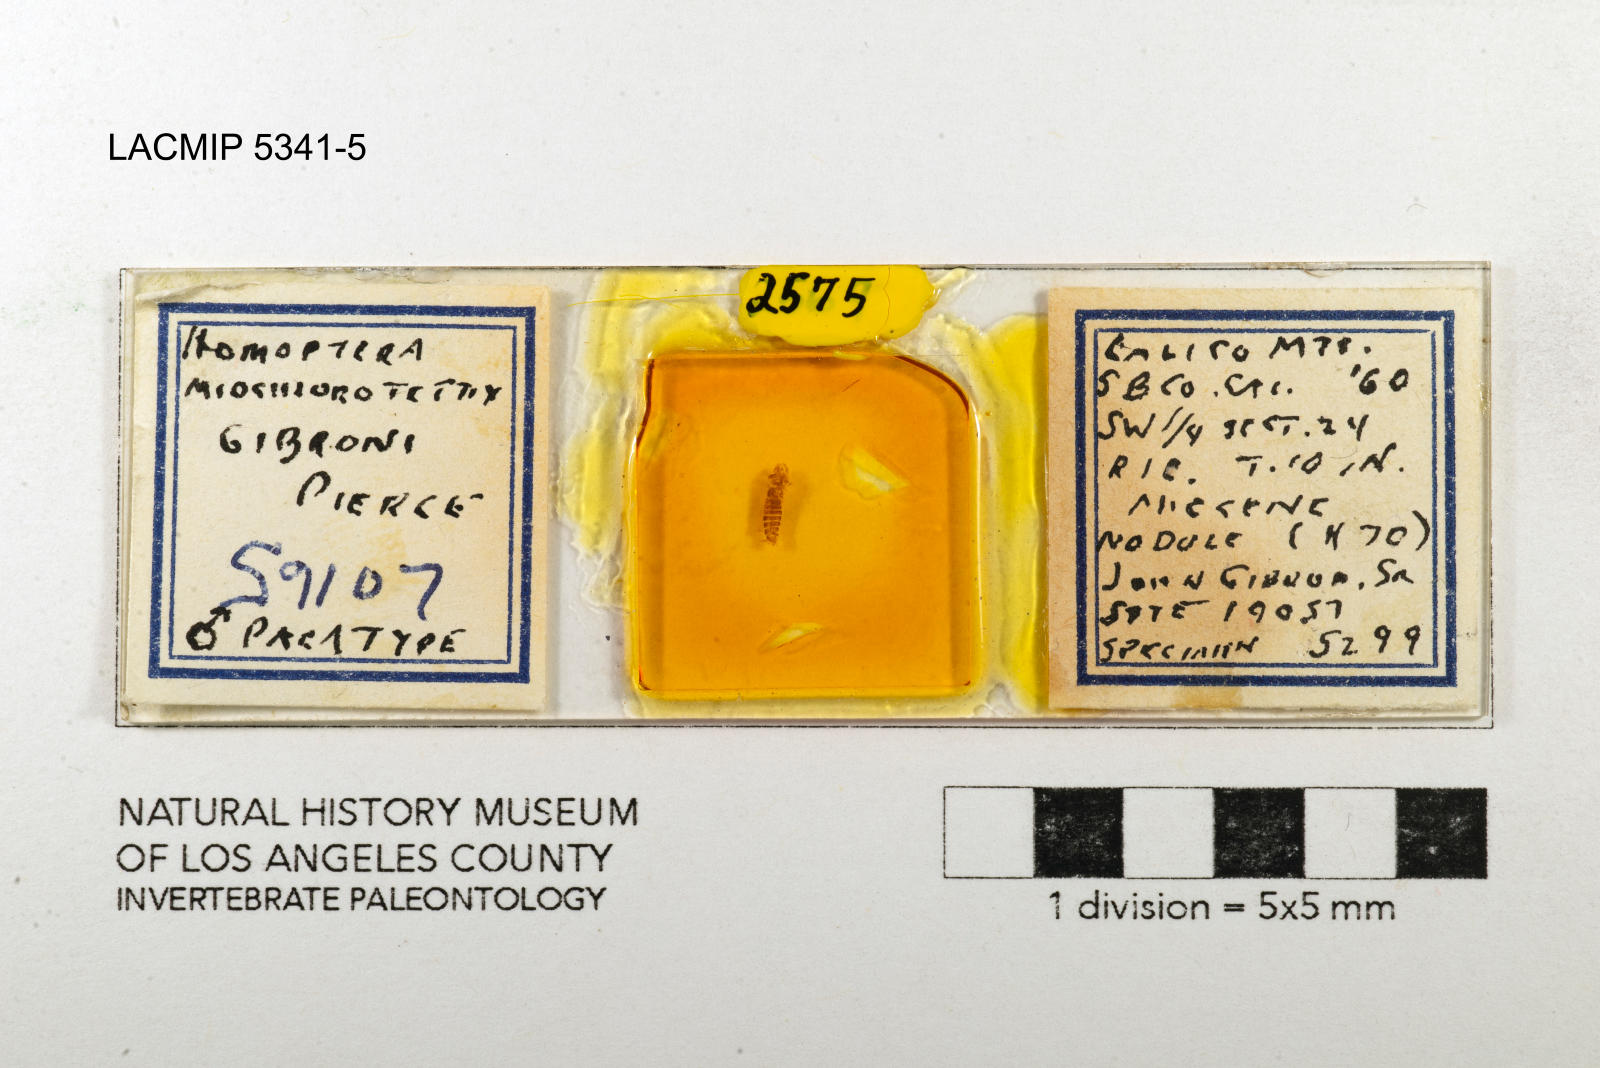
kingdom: Animalia
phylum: Arthropoda
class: Insecta
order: Hemiptera
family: Cicadellidae
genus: Miochlorotettix
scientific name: Miochlorotettix gibroni
